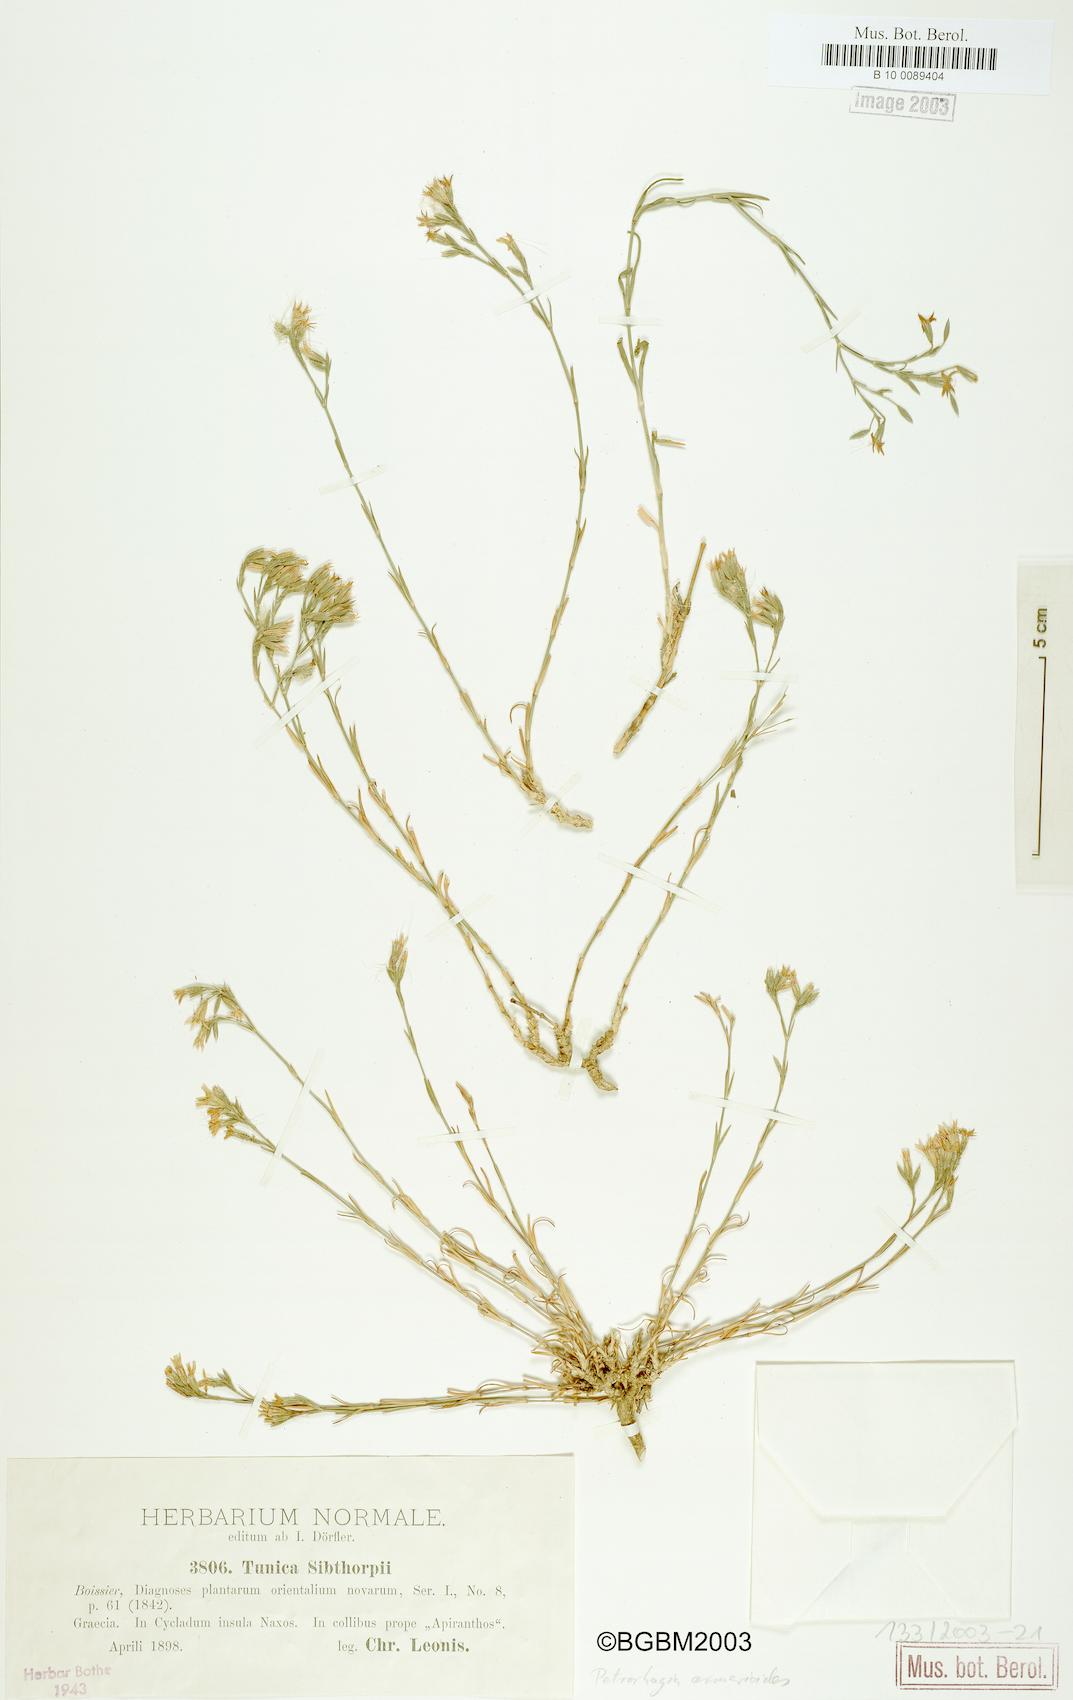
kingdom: Plantae
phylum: Tracheophyta
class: Magnoliopsida
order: Caryophyllales
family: Caryophyllaceae
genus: Dianthus
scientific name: Dianthus tunicoides
